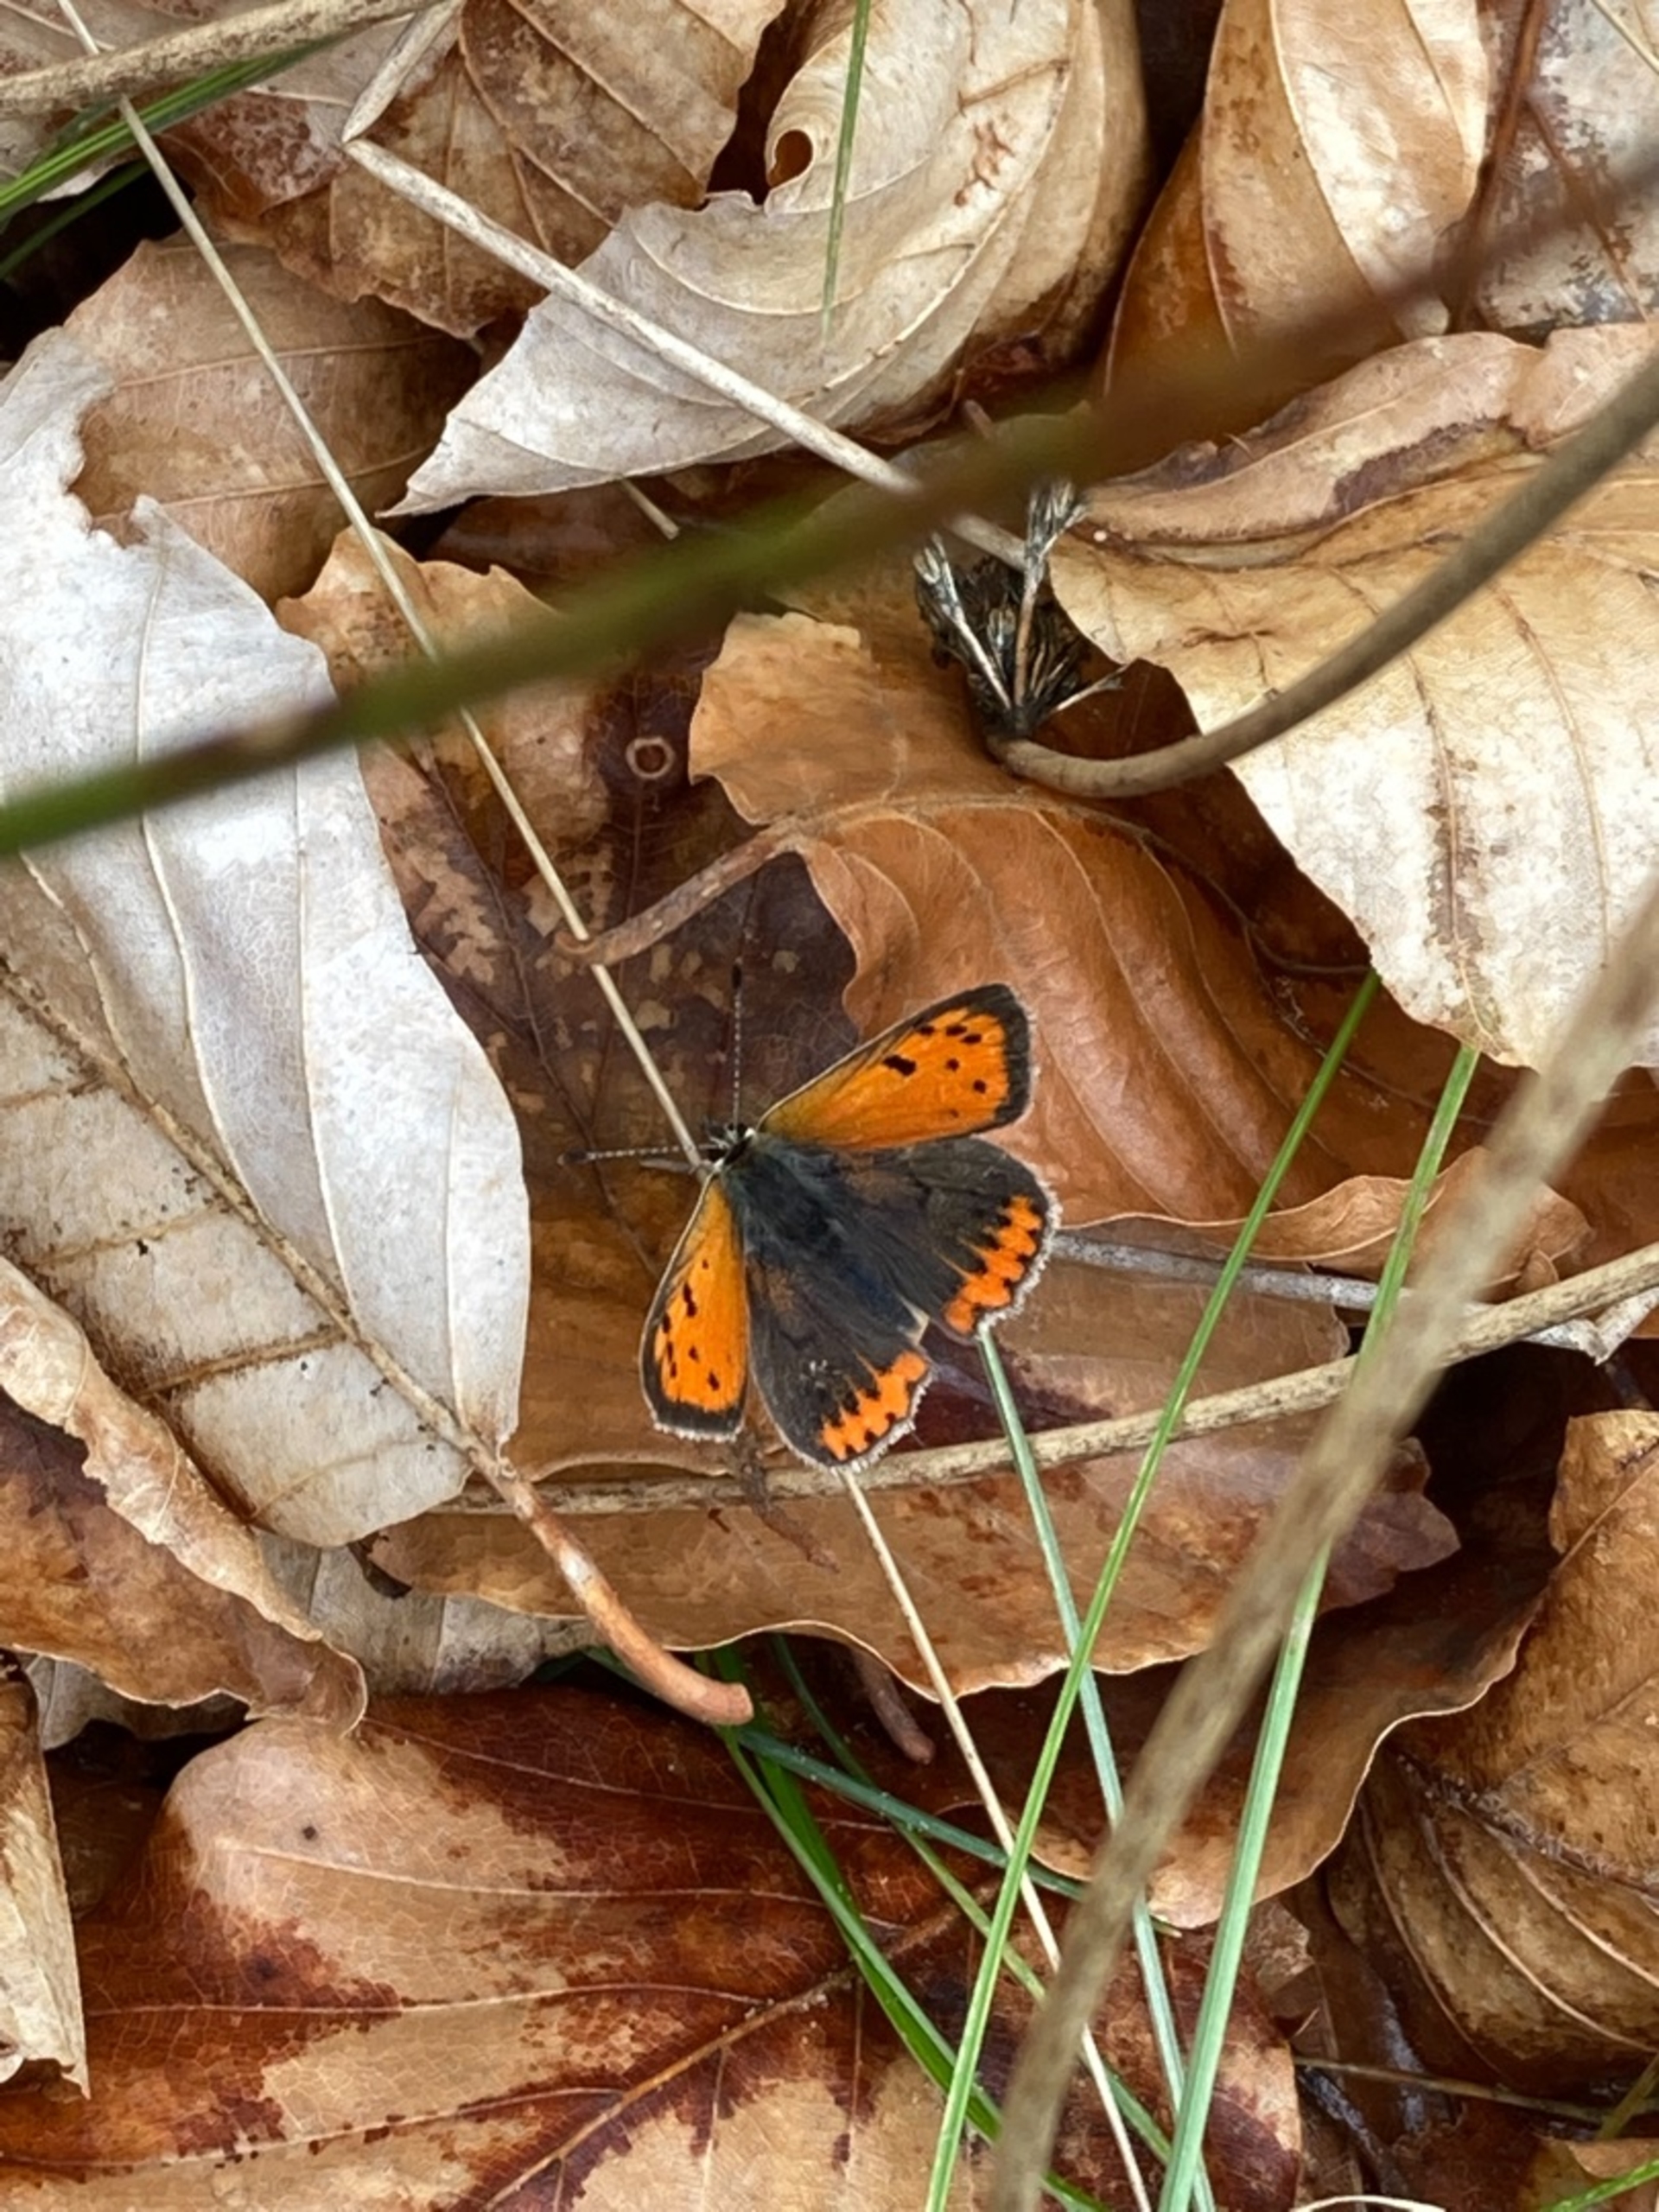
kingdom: Animalia
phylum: Arthropoda
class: Insecta
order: Lepidoptera
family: Lycaenidae
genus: Lycaena
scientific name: Lycaena phlaeas
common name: Lille ildfugl
